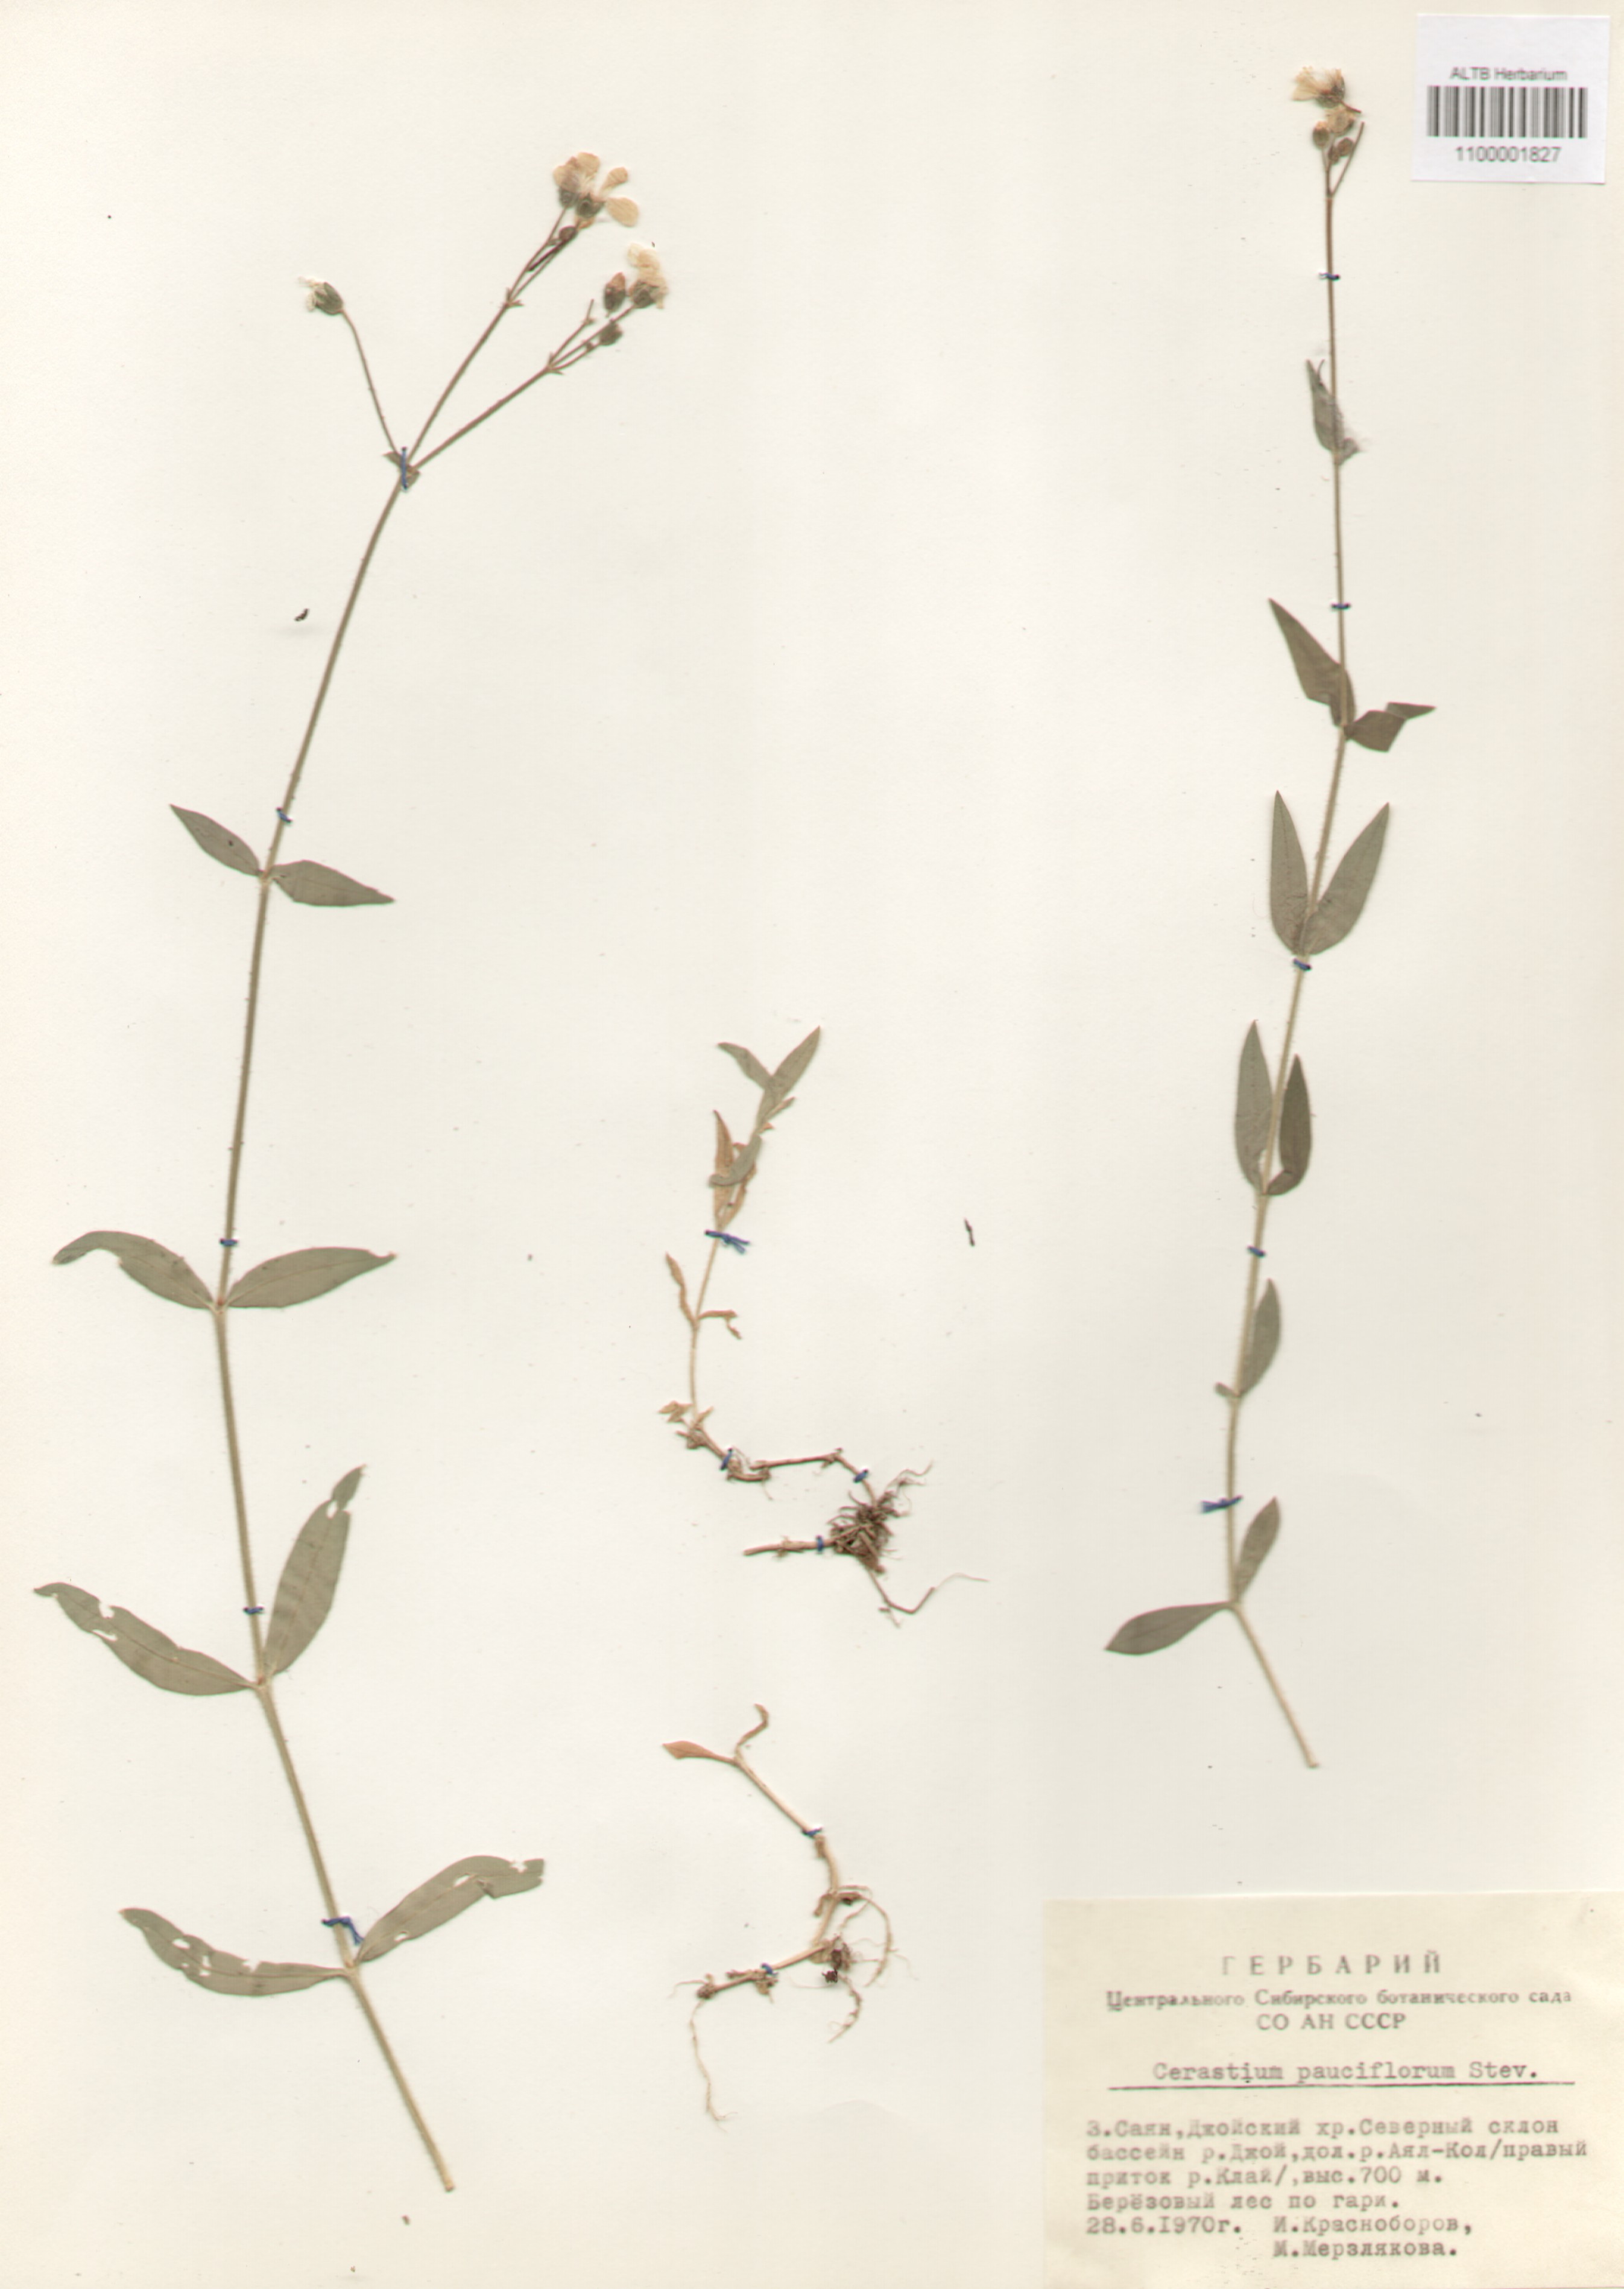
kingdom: Plantae
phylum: Tracheophyta
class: Magnoliopsida
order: Caryophyllales
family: Caryophyllaceae
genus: Cerastium
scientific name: Cerastium pauciflorum
